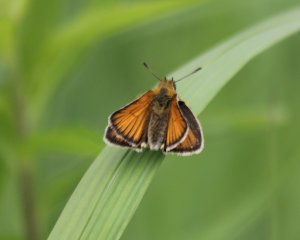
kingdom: Animalia
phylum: Arthropoda
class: Insecta
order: Lepidoptera
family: Hesperiidae
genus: Thymelicus
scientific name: Thymelicus lineola
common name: European Skipper
